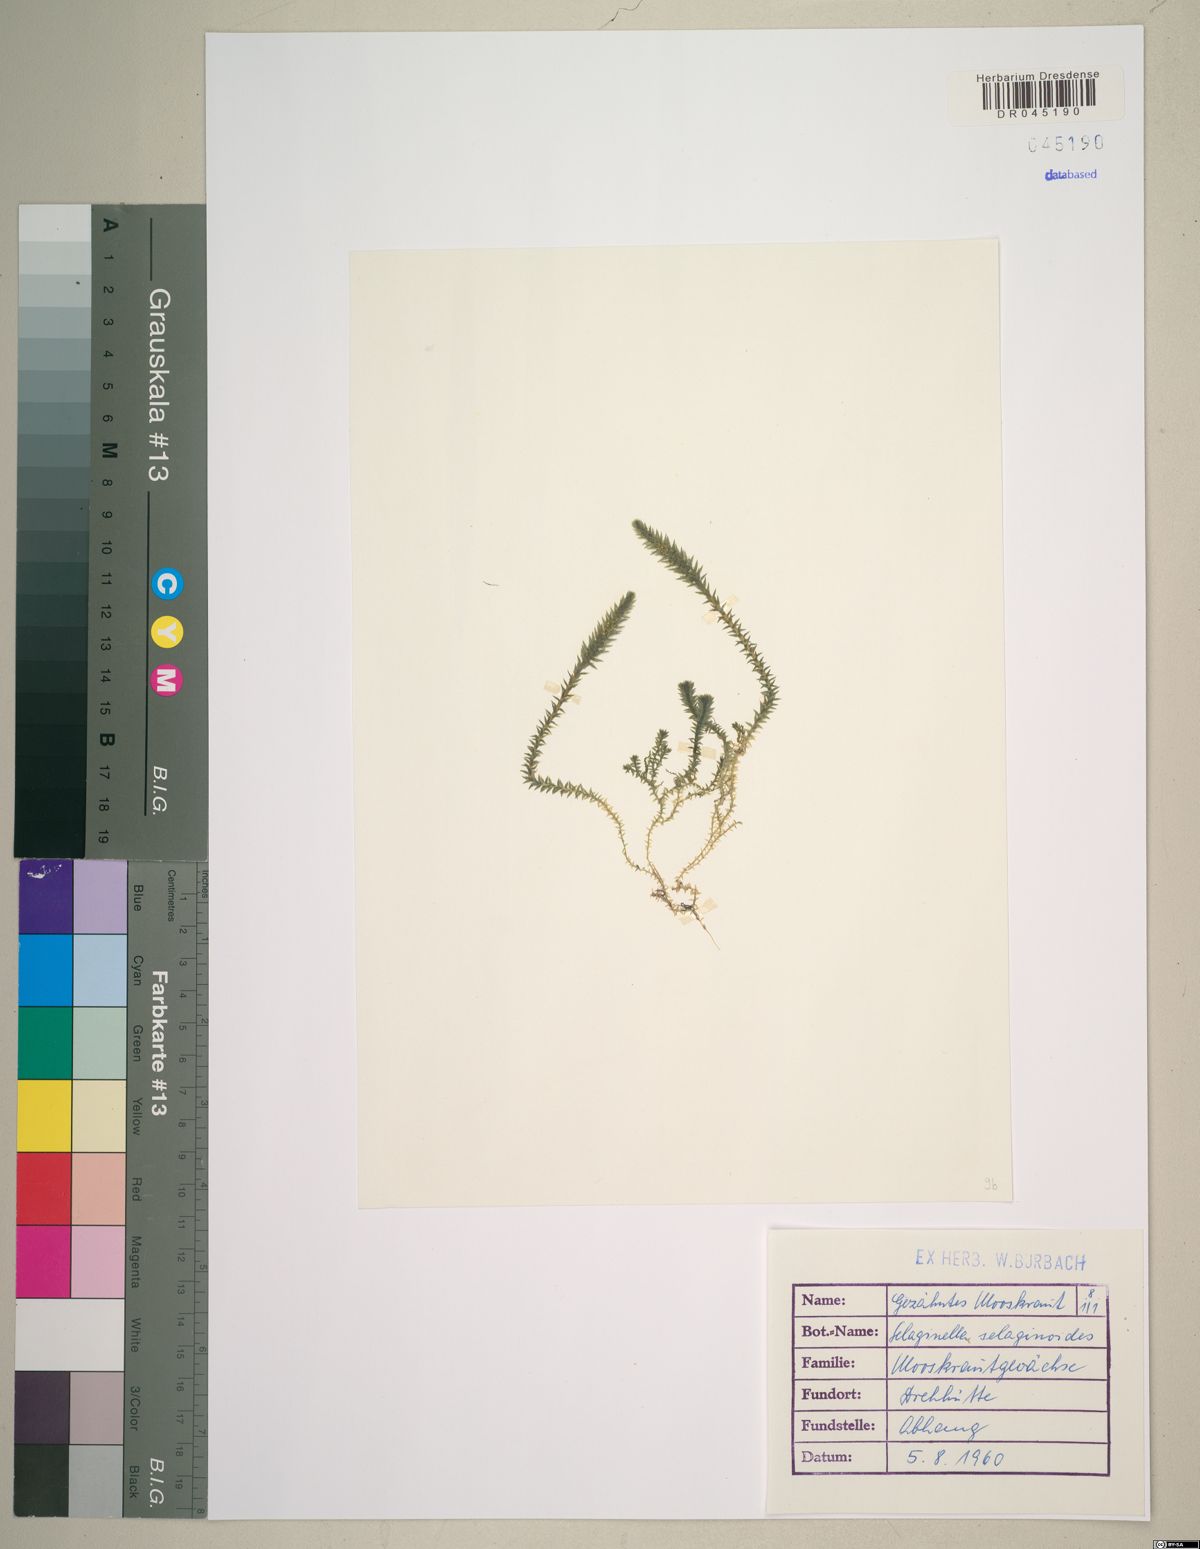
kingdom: Plantae
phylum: Tracheophyta
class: Lycopodiopsida
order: Selaginellales
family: Selaginellaceae
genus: Selaginella
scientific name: Selaginella selaginoides
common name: Prickly mountain-moss
